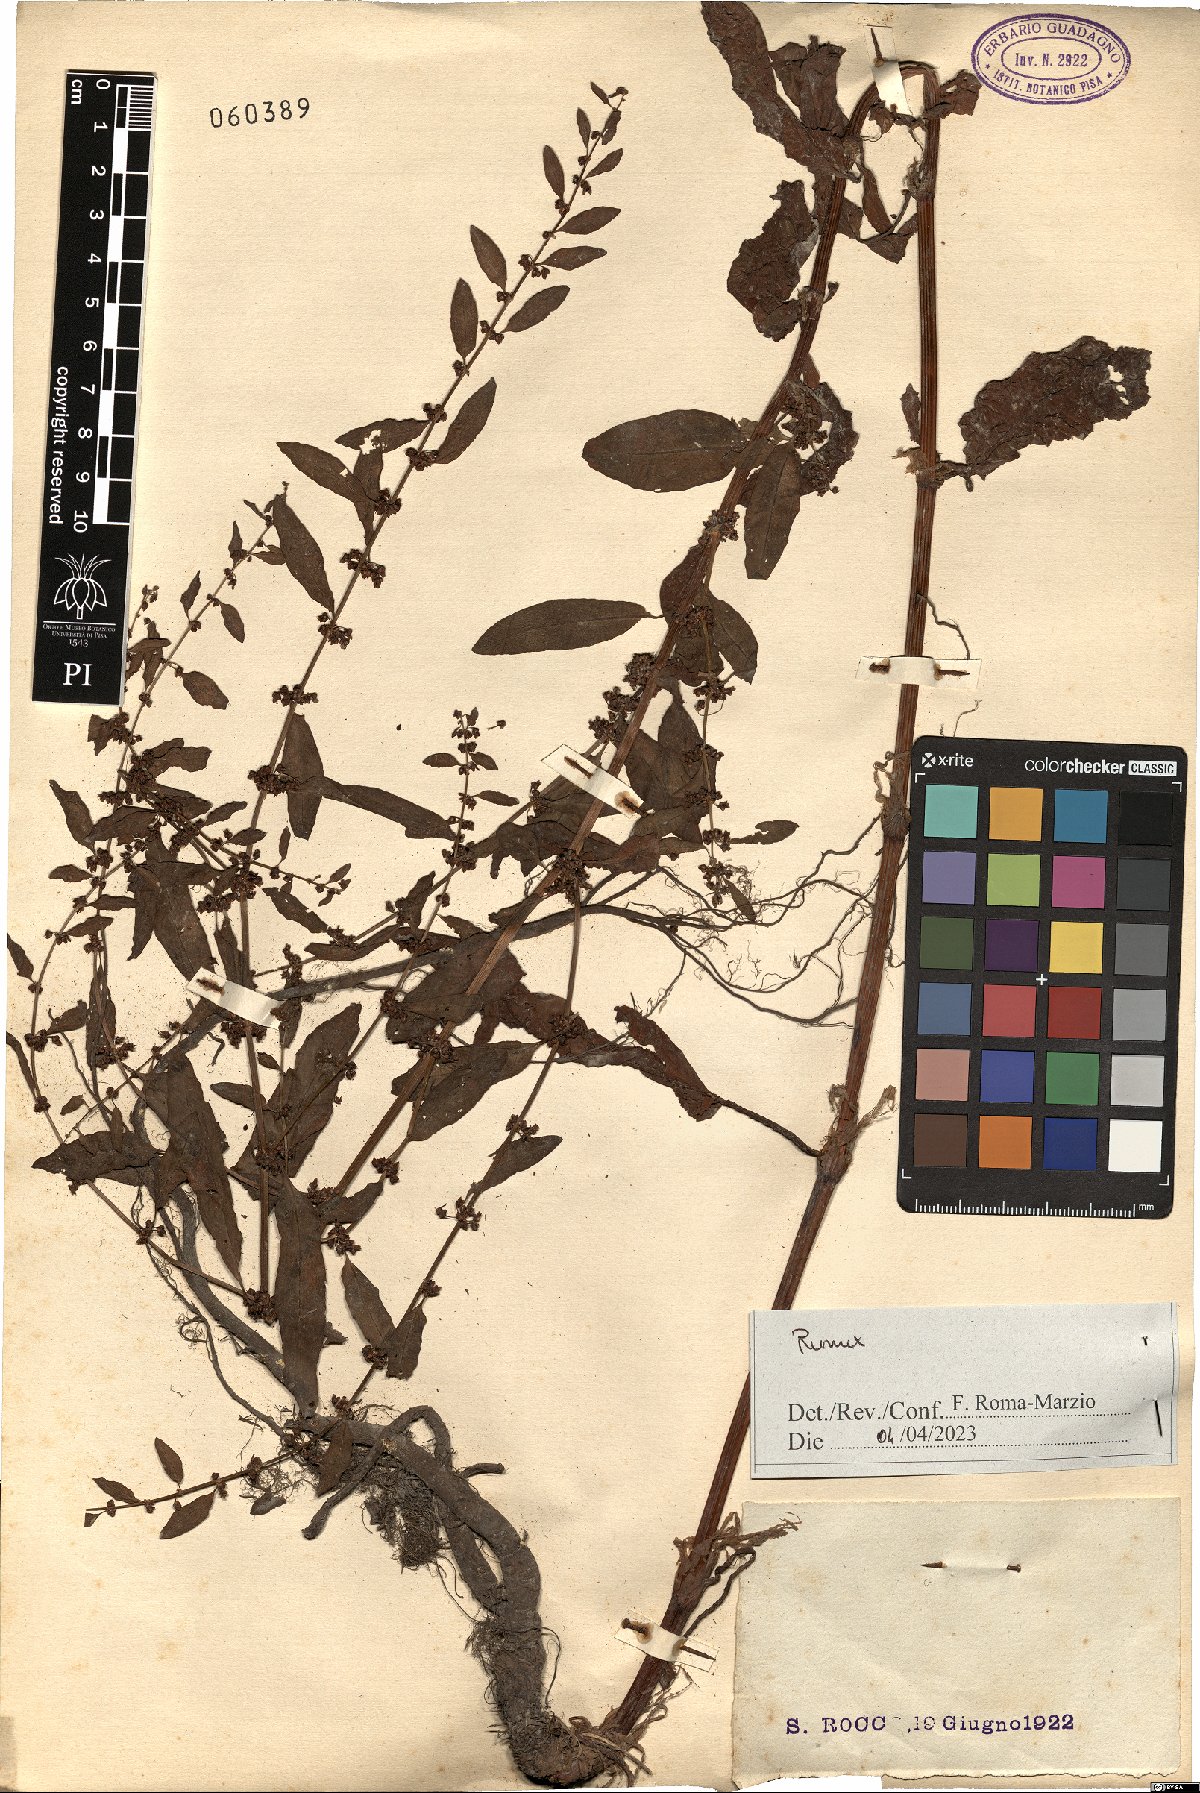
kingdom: Plantae
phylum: Tracheophyta
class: Magnoliopsida
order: Caryophyllales
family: Polygonaceae
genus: Rumex
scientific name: Rumex
